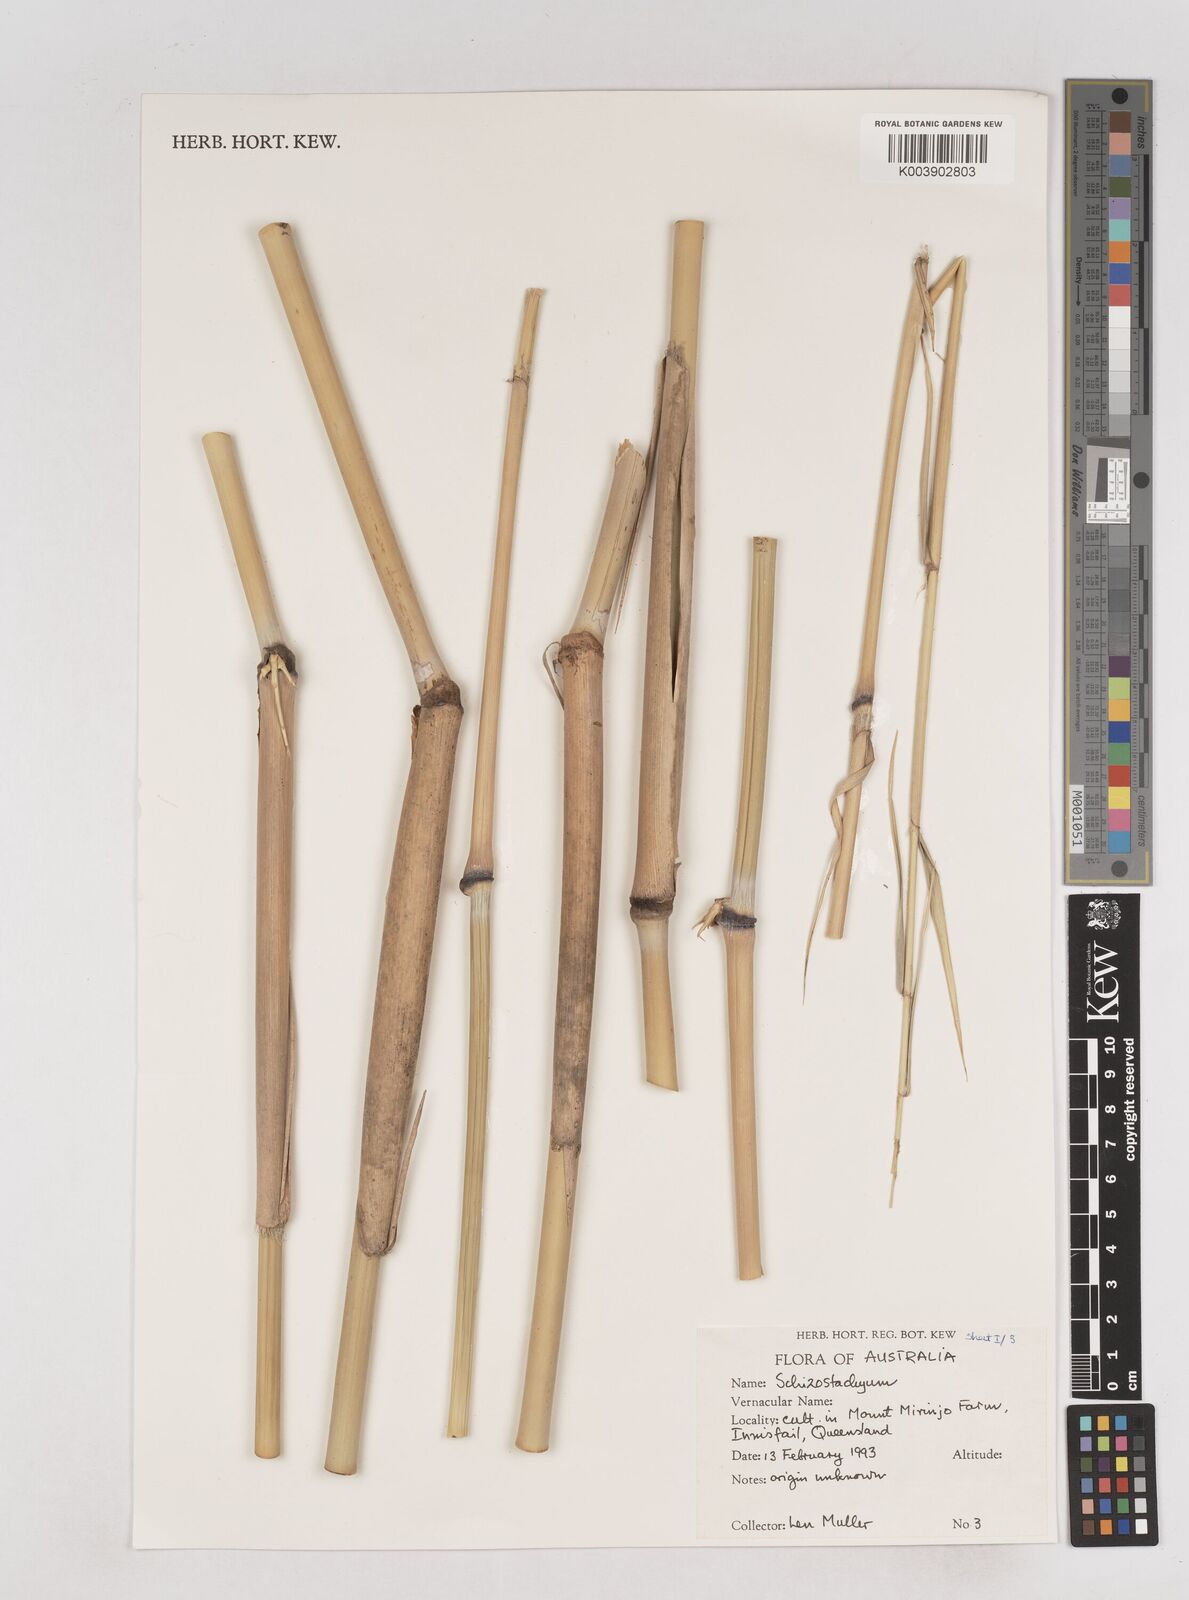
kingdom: Plantae
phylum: Tracheophyta
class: Liliopsida
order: Poales
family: Poaceae
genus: Schizostachyum
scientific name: Schizostachyum
